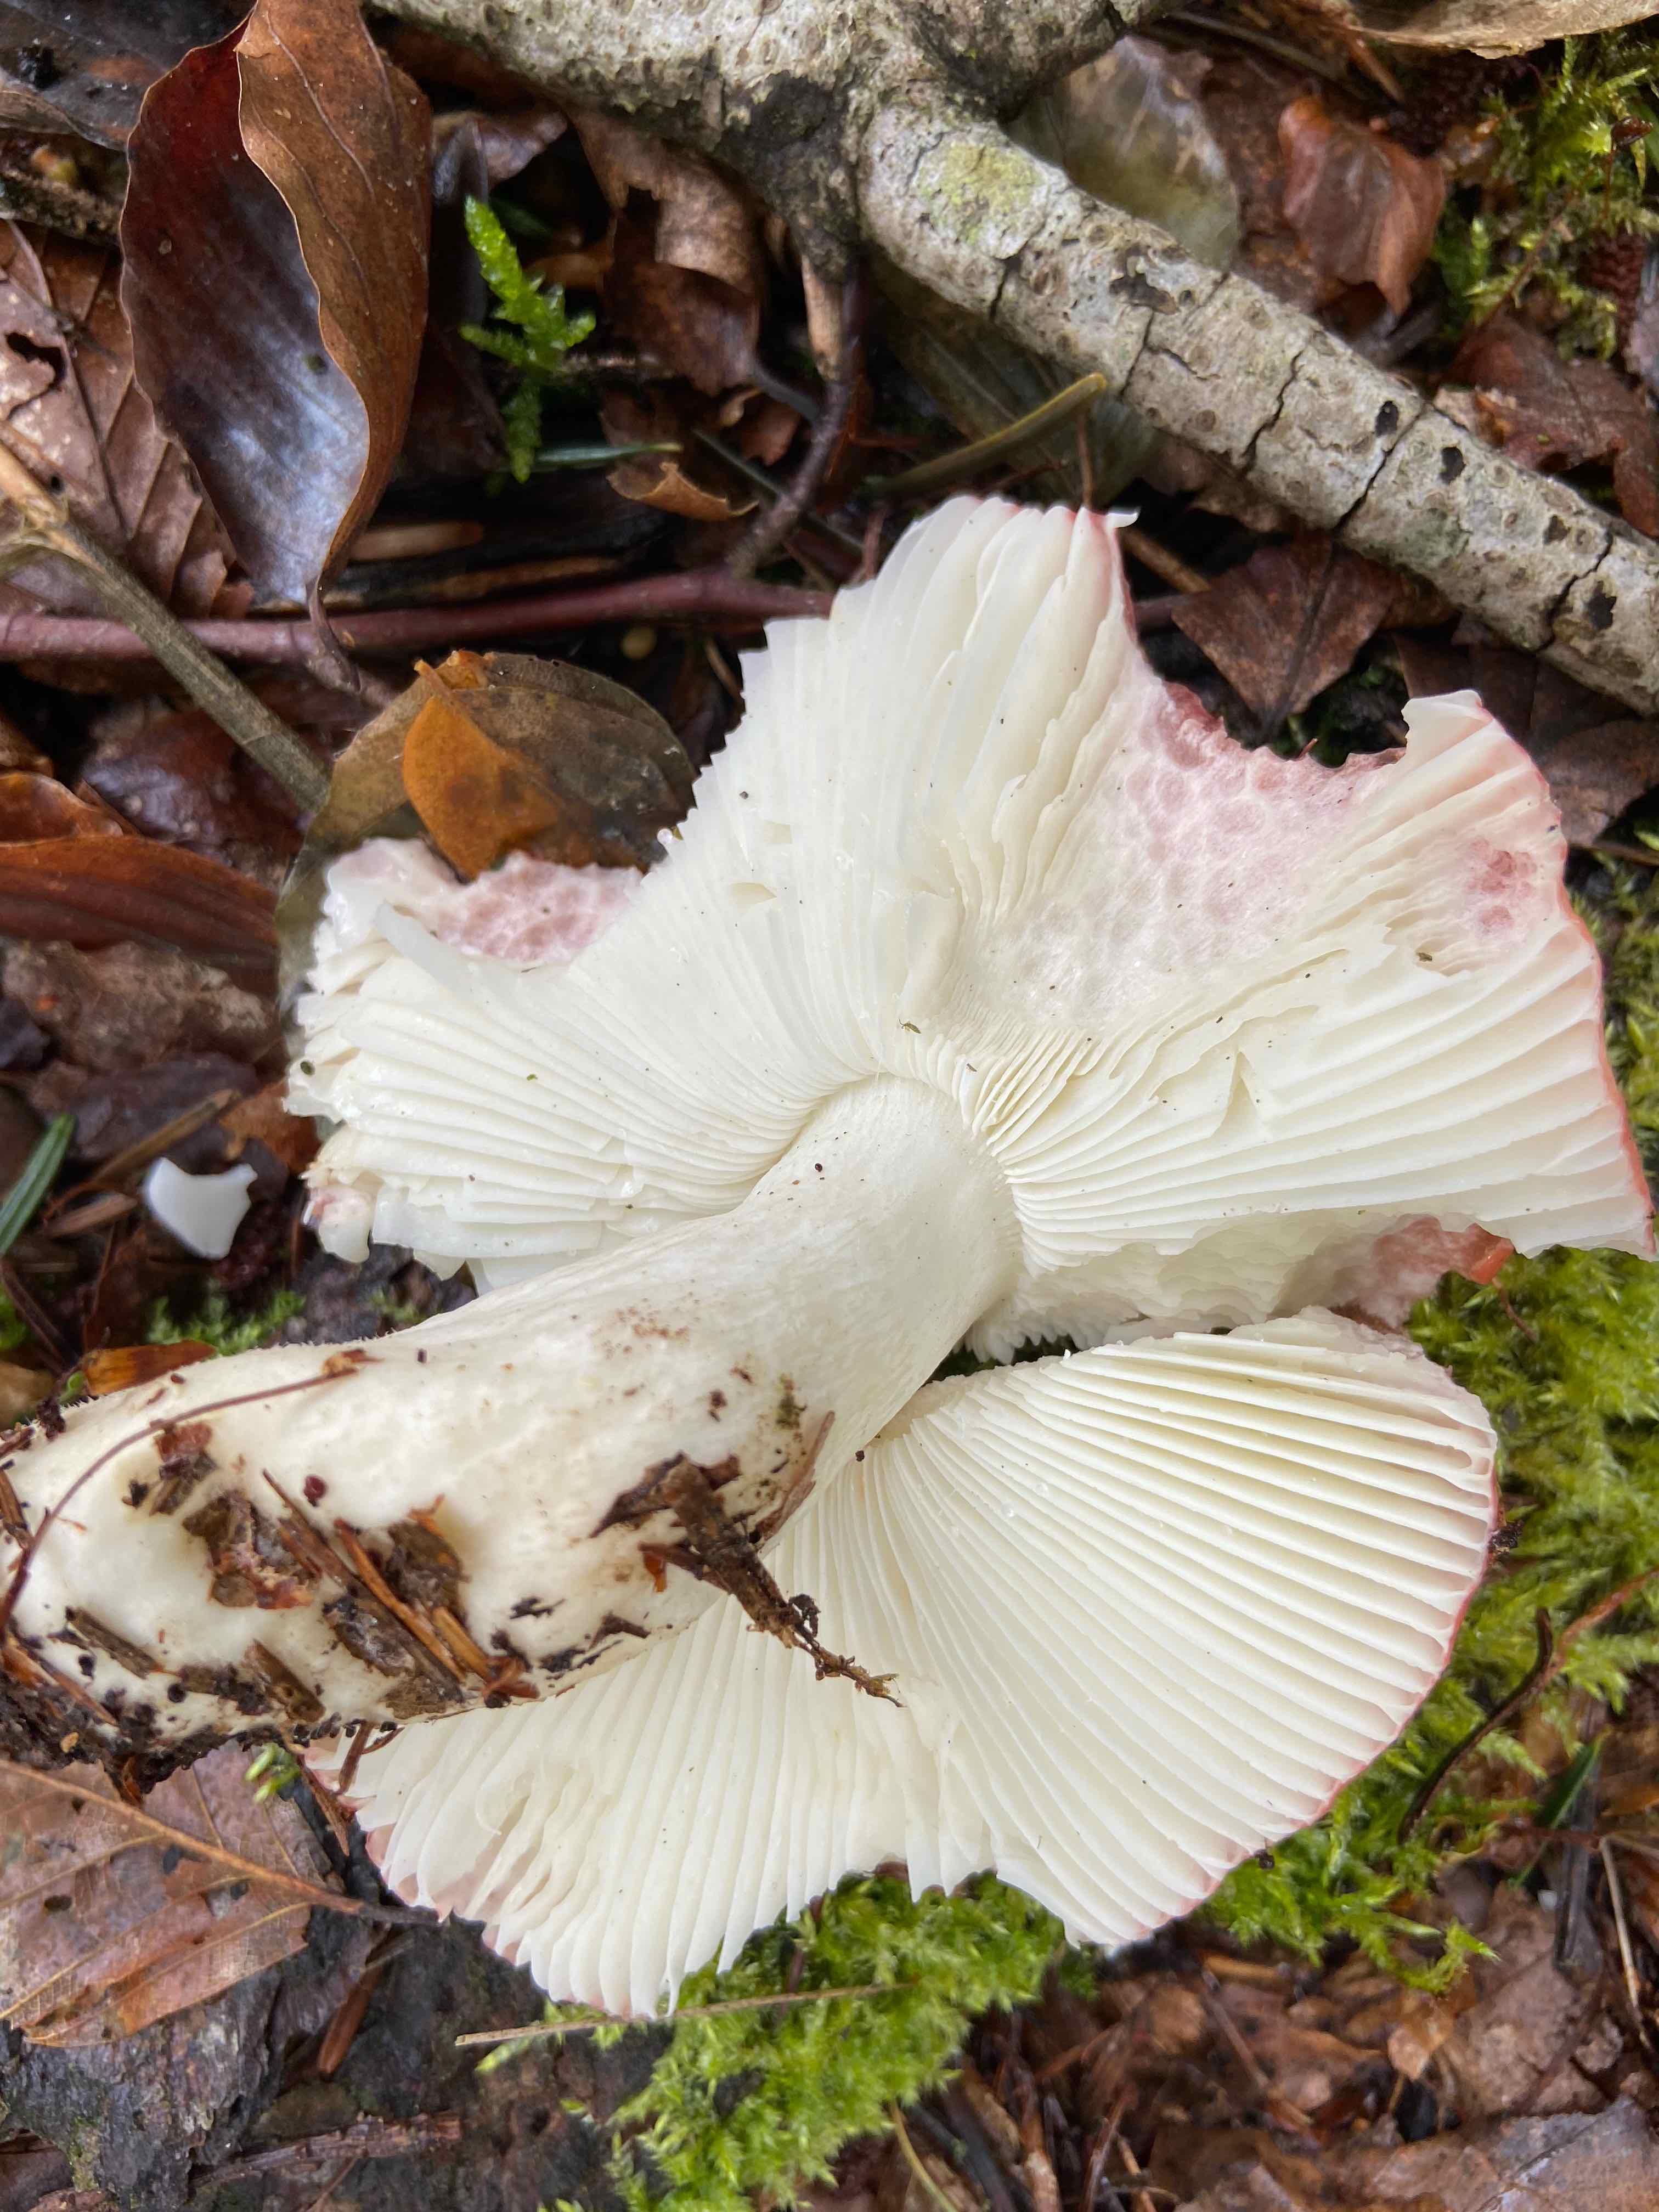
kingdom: Fungi
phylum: Basidiomycota
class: Agaricomycetes
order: Russulales
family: Russulaceae
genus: Russula
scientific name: Russula
